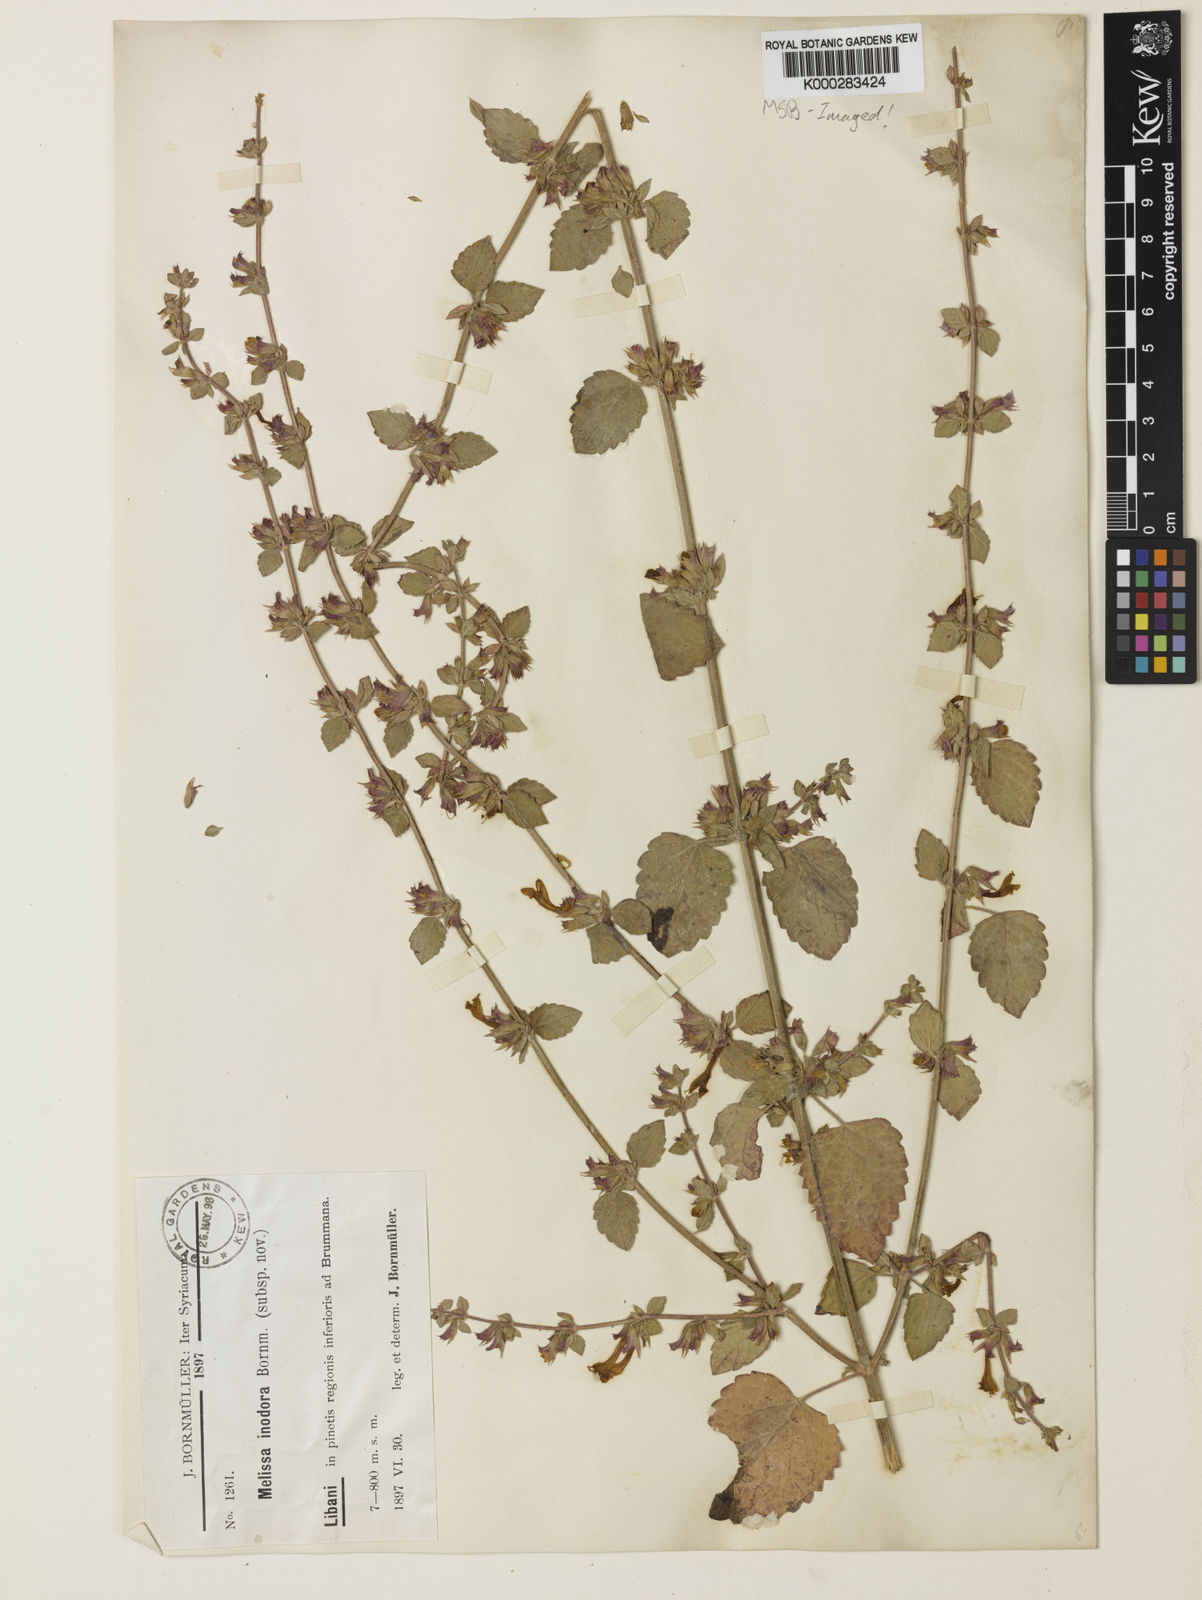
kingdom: Plantae
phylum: Tracheophyta
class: Magnoliopsida
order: Lamiales
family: Lamiaceae
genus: Melissa
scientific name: Melissa officinalis
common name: Balm
